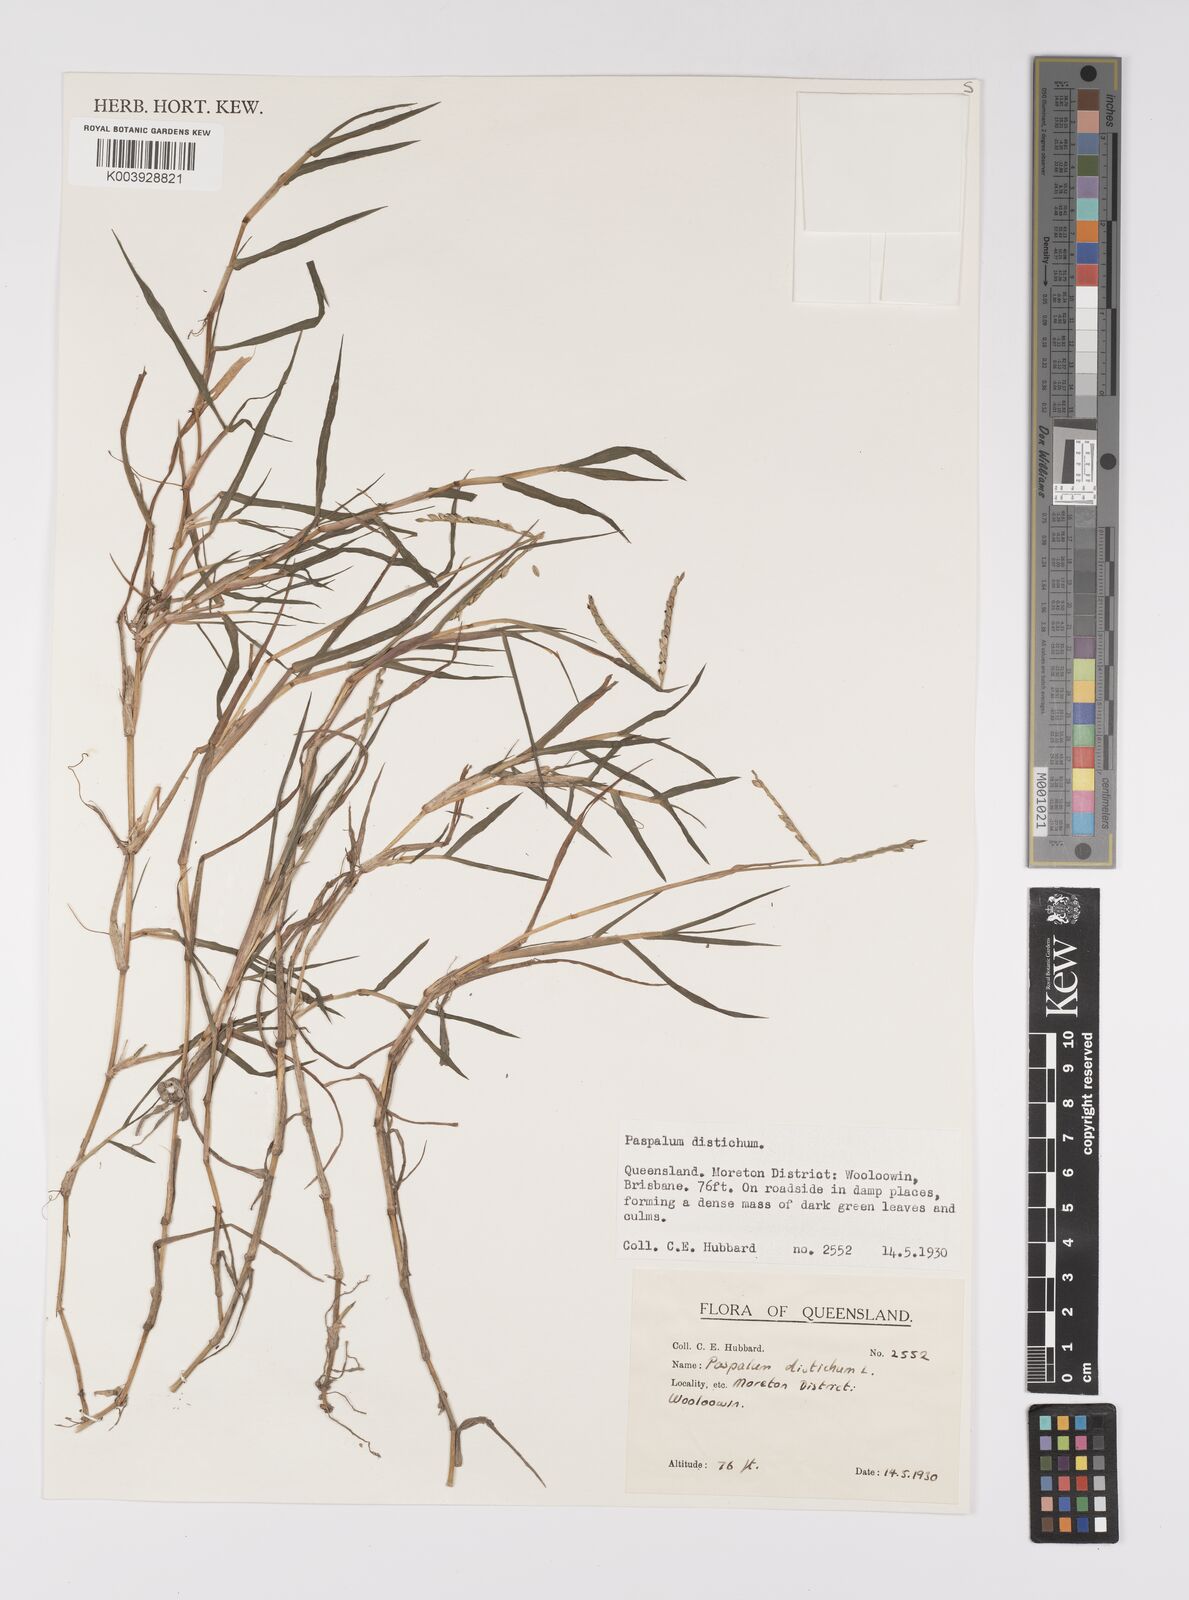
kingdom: Plantae
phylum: Tracheophyta
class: Liliopsida
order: Poales
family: Poaceae
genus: Paspalum
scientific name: Paspalum distichum
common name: Knotgrass
